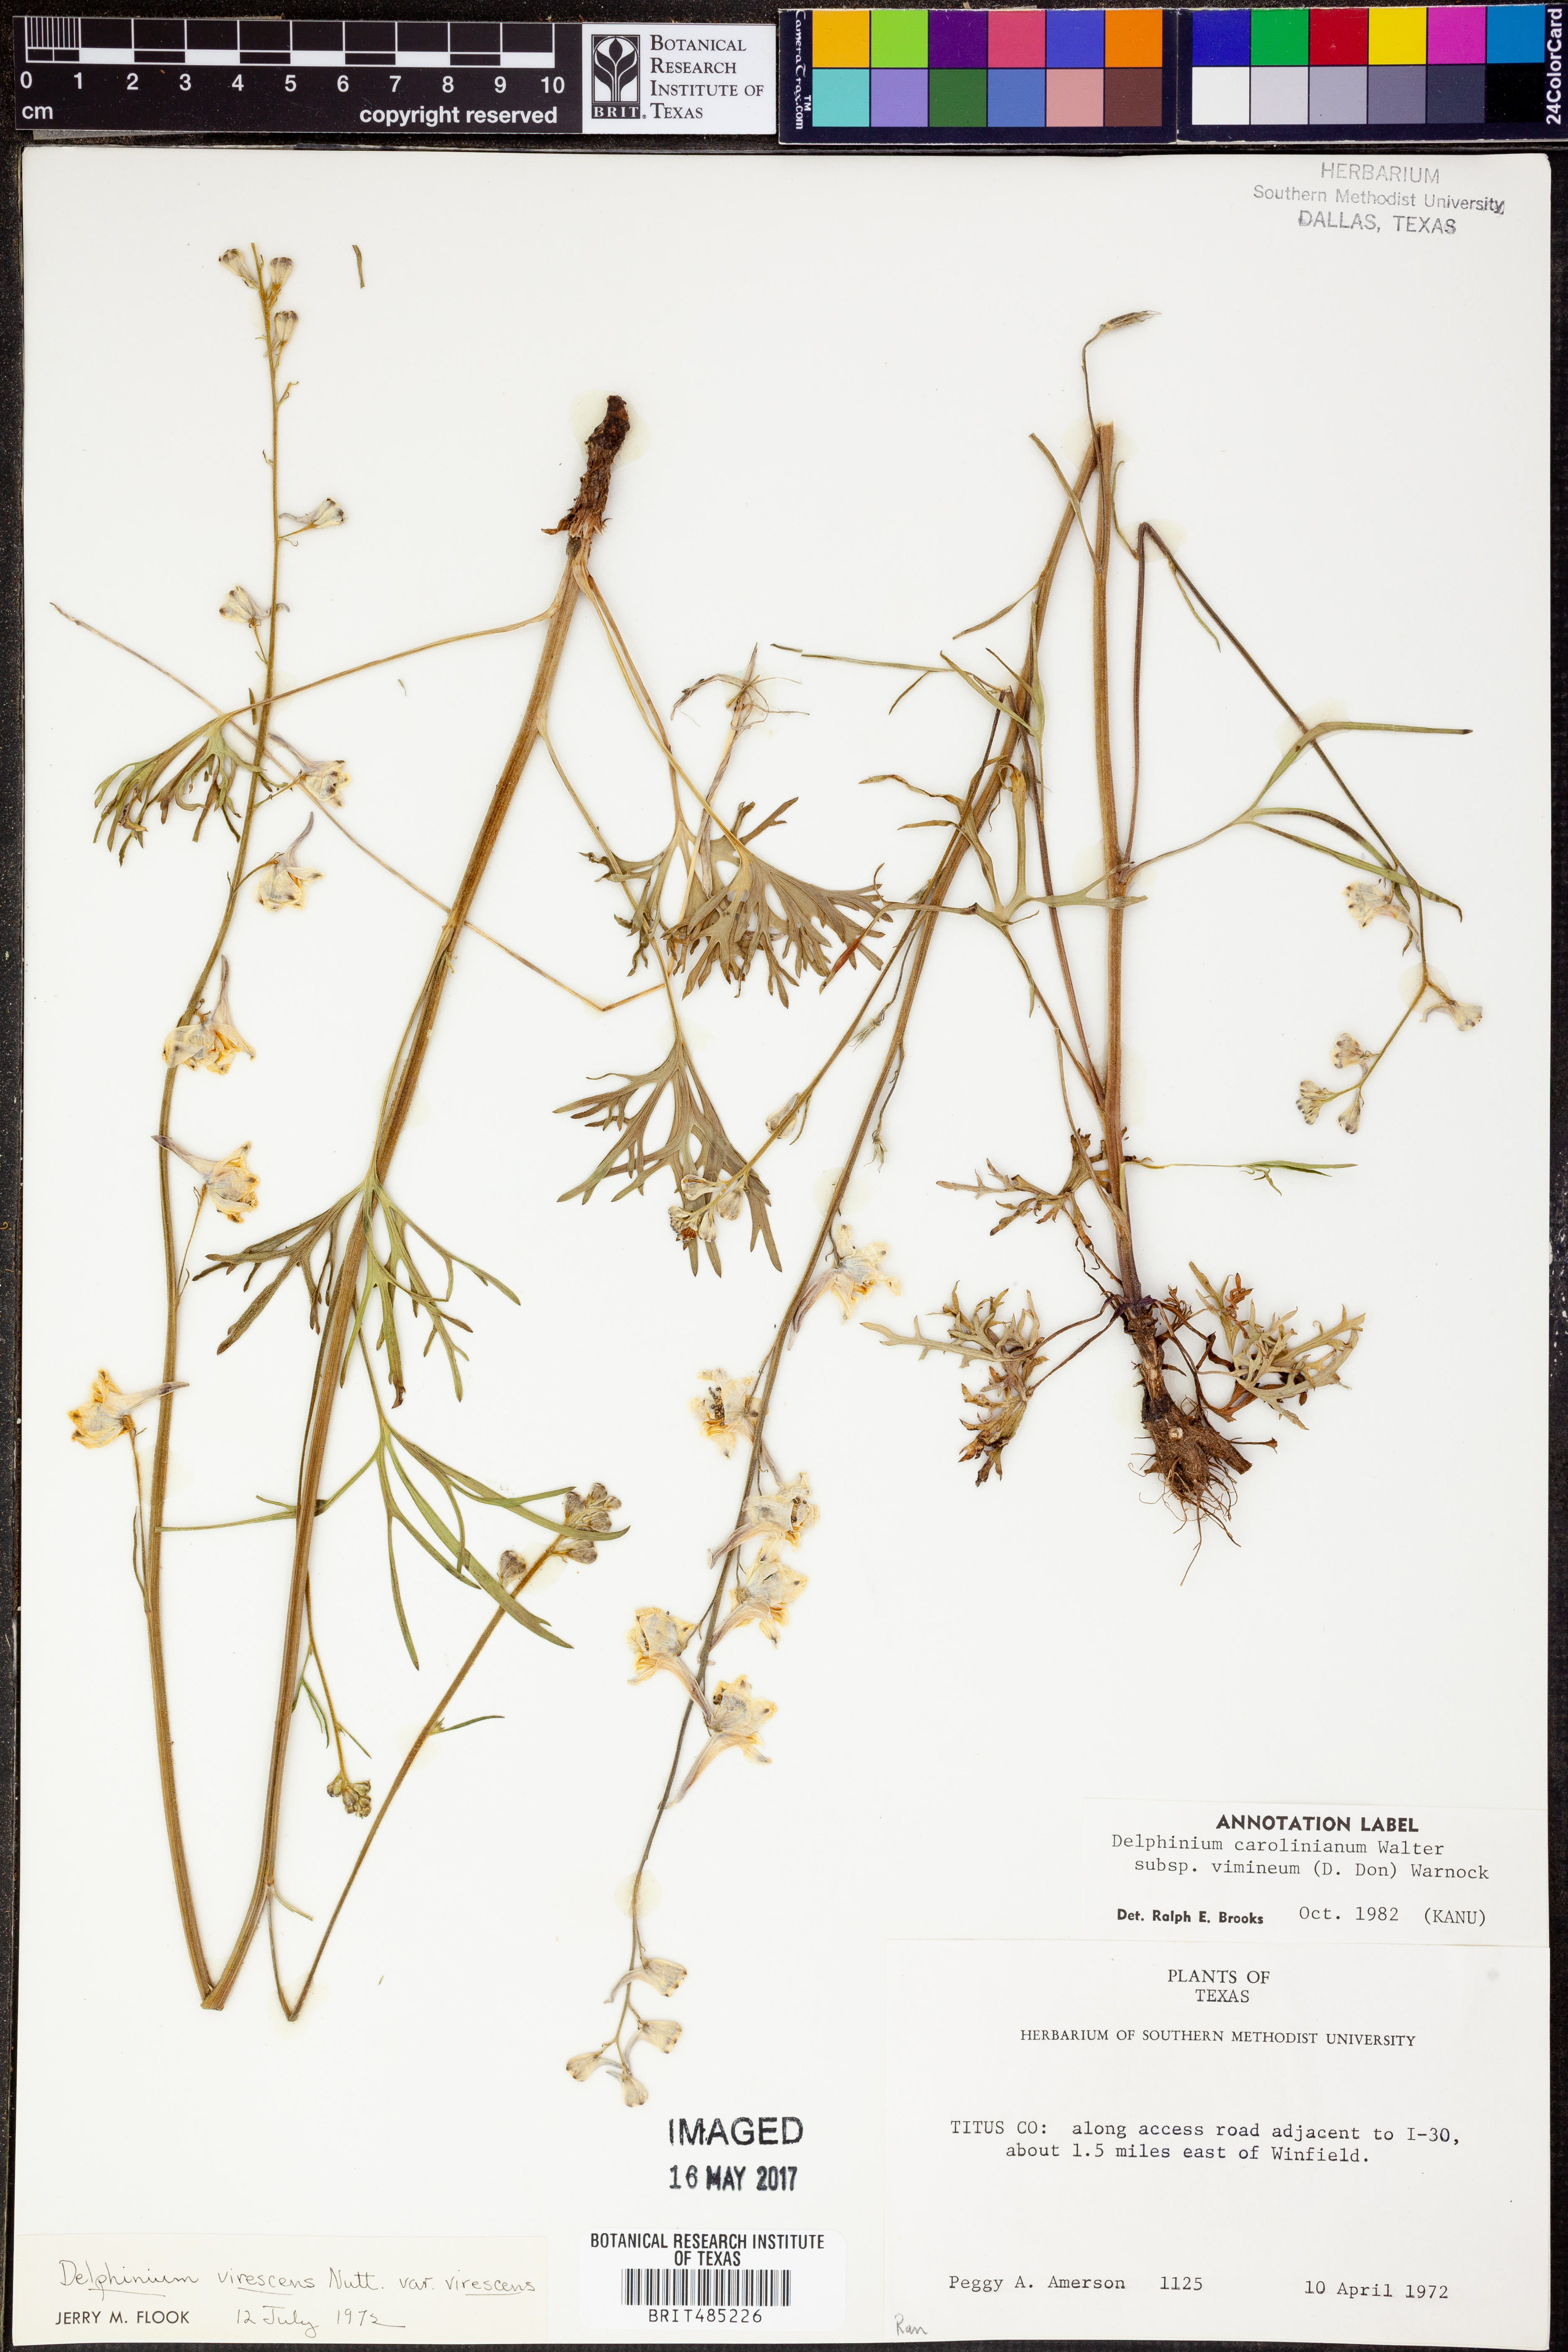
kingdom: Plantae
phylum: Tracheophyta
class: Magnoliopsida
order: Ranunculales
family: Ranunculaceae
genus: Delphinium
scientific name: Delphinium carolinianum
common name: Carolina larkspur
